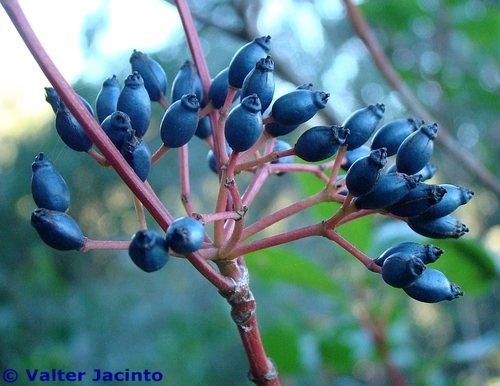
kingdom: Plantae
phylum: Tracheophyta
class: Magnoliopsida
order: Dipsacales
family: Viburnaceae
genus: Viburnum
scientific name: Viburnum tinus
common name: Laurustinus
